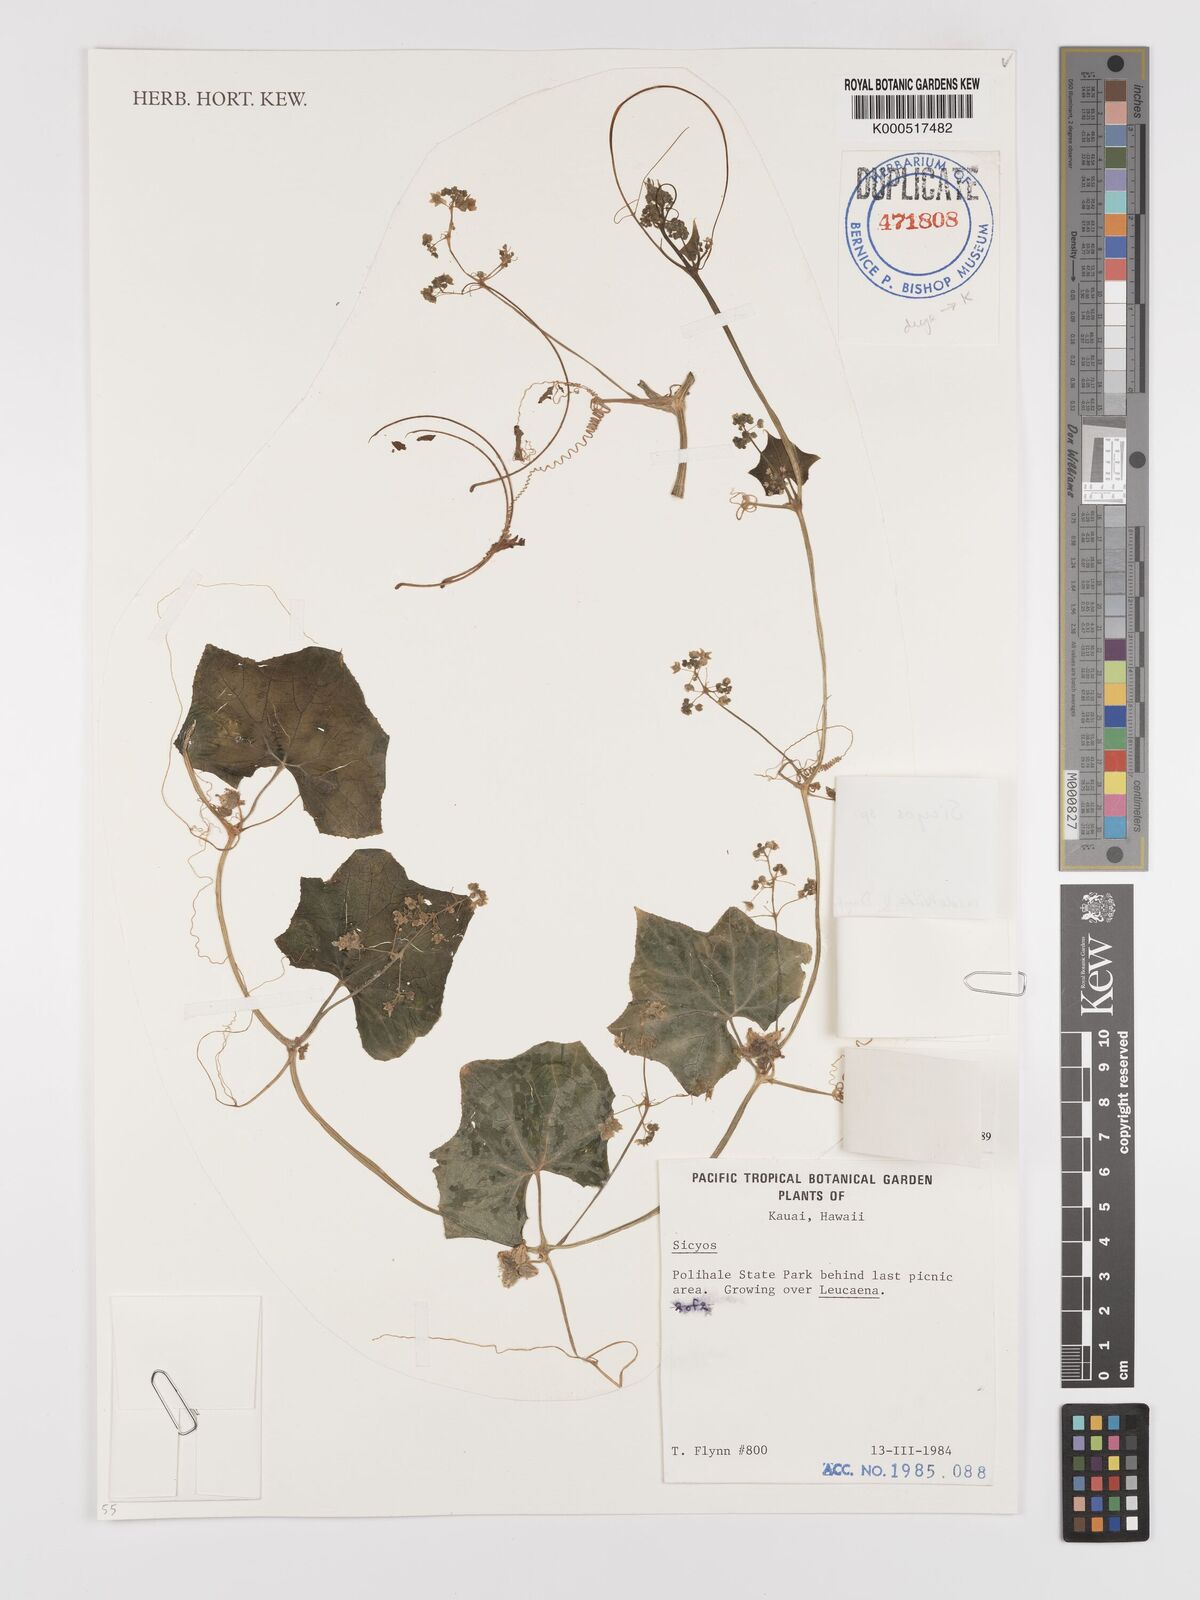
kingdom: Plantae
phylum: Tracheophyta
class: Magnoliopsida
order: Cucurbitales
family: Cucurbitaceae
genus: Sicyos
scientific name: Sicyos
